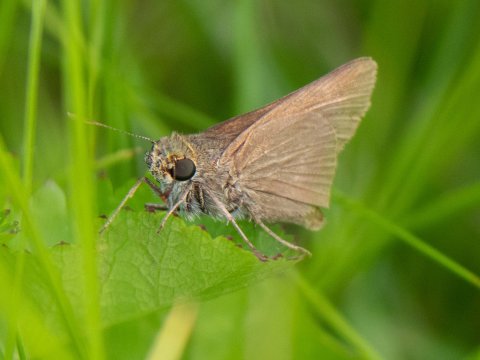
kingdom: Animalia
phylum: Arthropoda
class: Insecta
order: Lepidoptera
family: Hesperiidae
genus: Euphyes
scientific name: Euphyes vestris
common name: Dun Skipper
